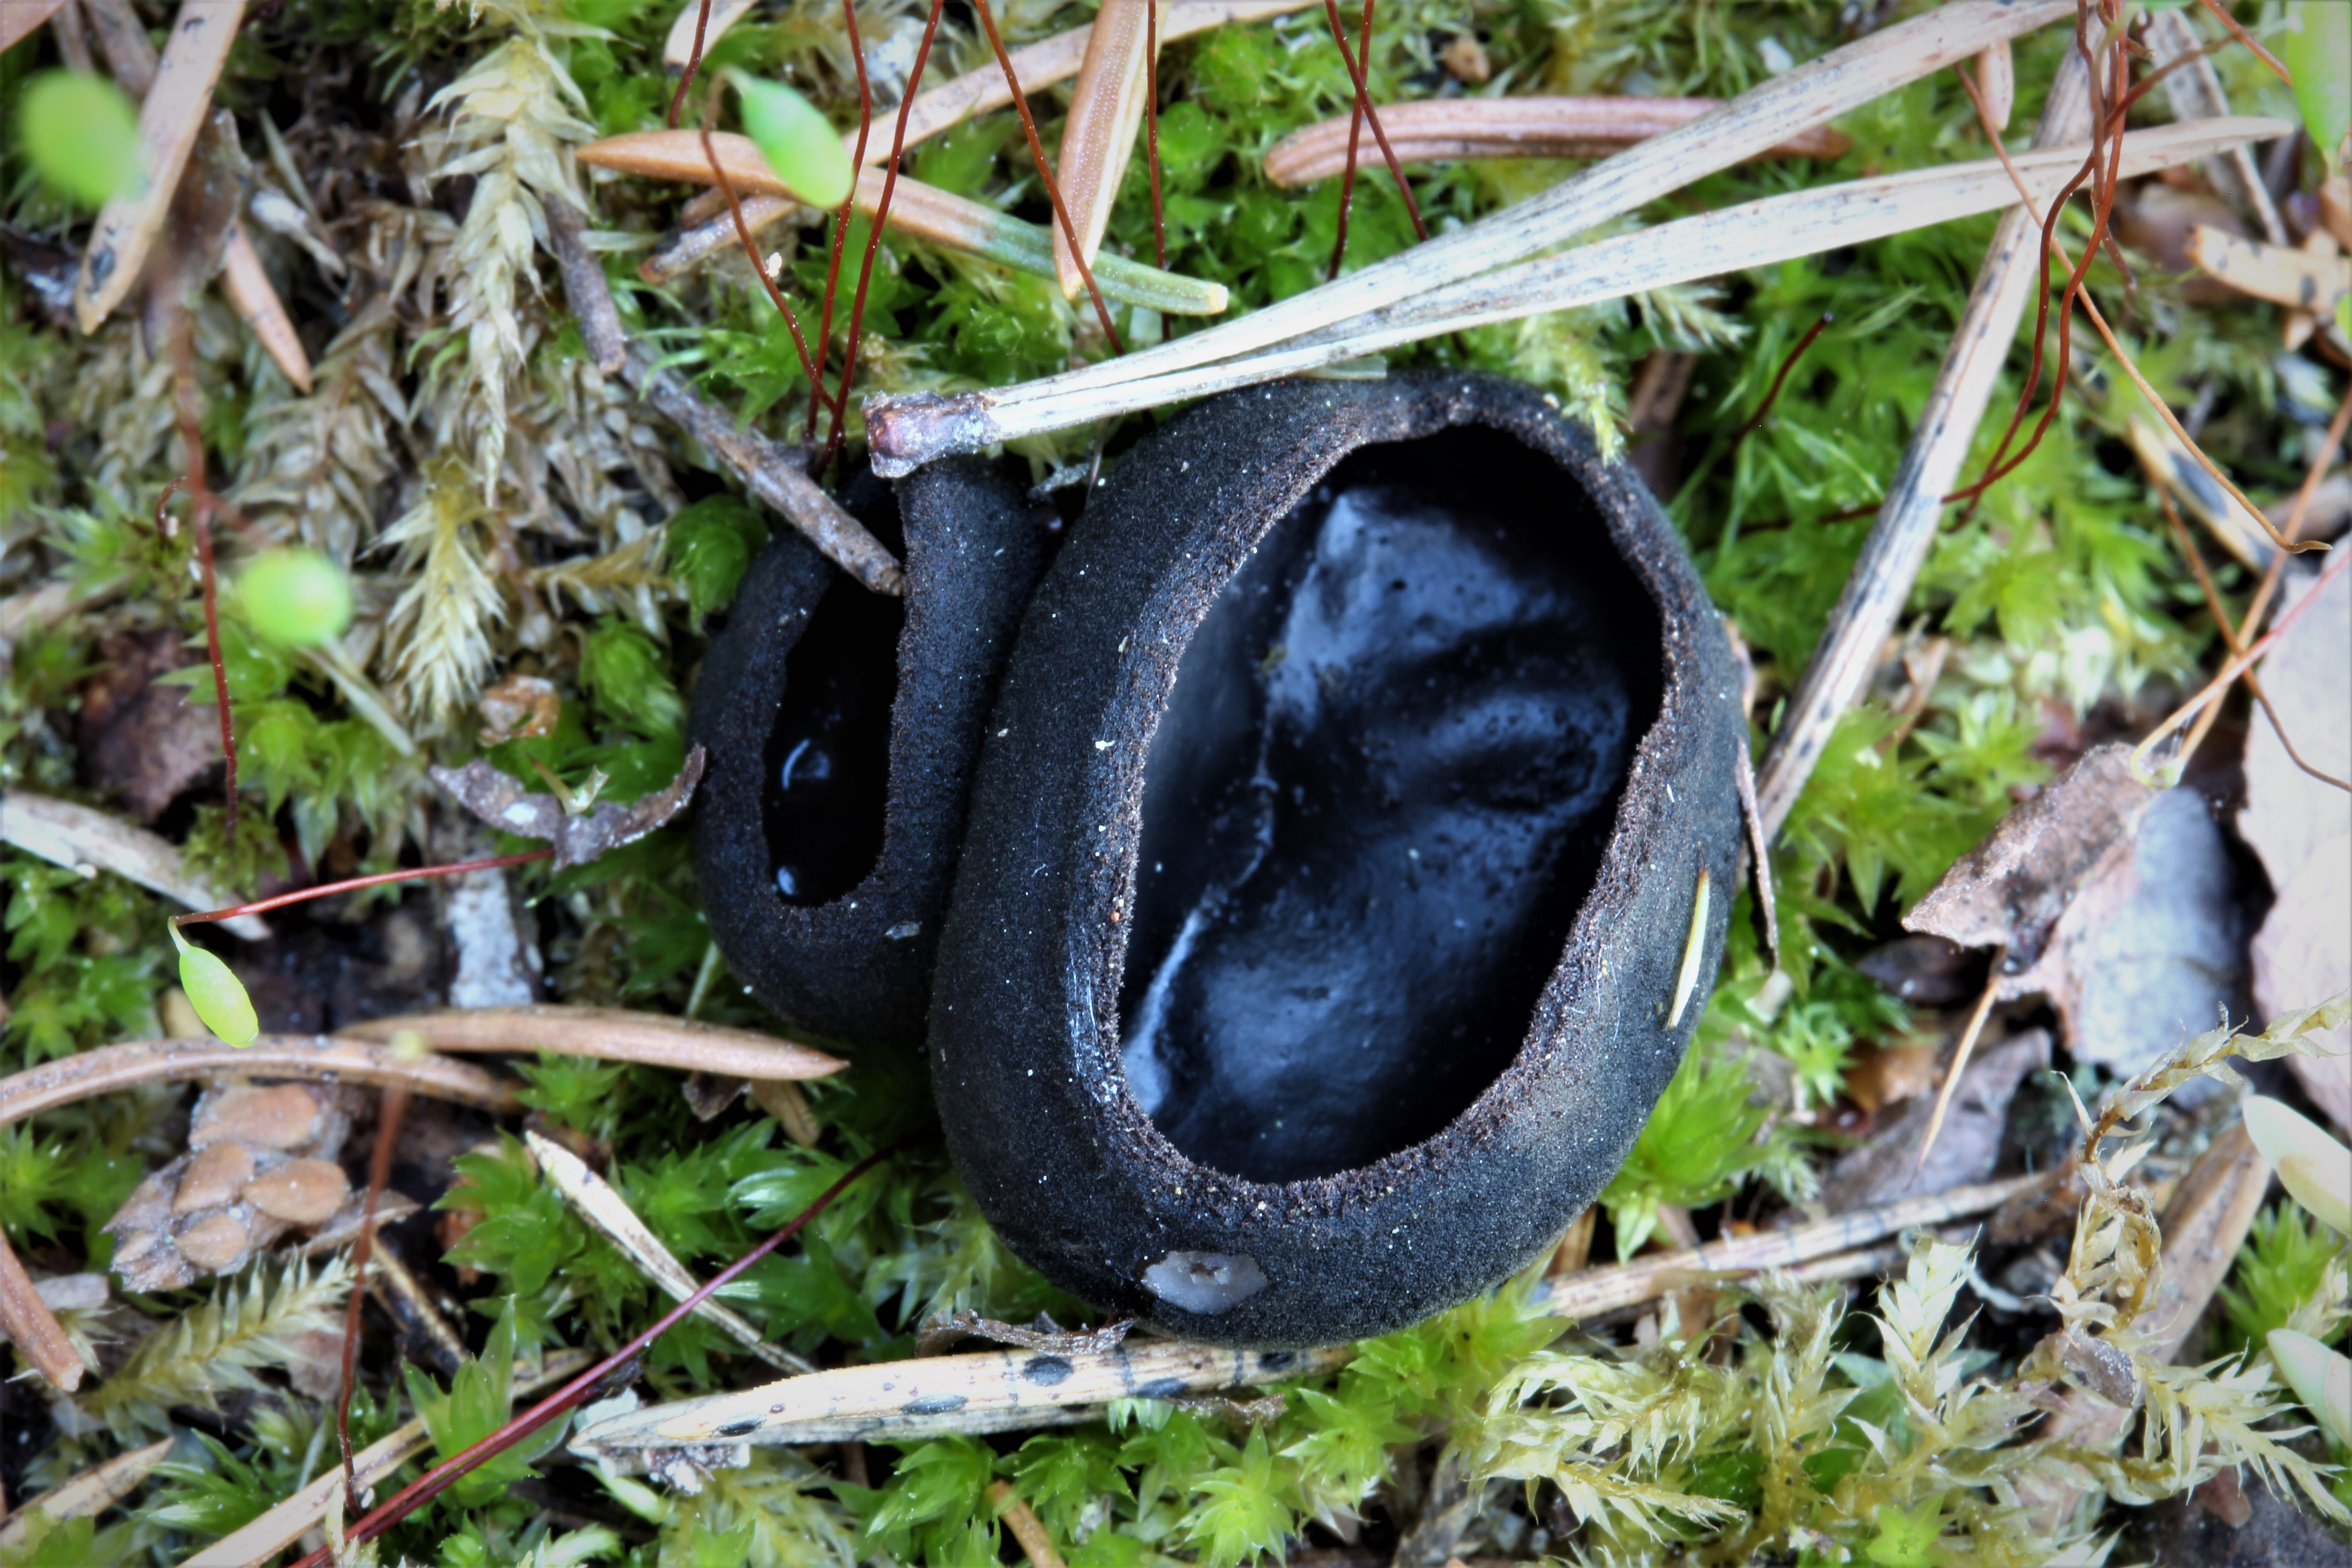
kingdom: Fungi
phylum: Ascomycota
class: Pezizomycetes
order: Pezizales
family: Sarcosomataceae
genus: Pseudoplectania
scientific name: Pseudoplectania nigrella
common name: Ebony cup
